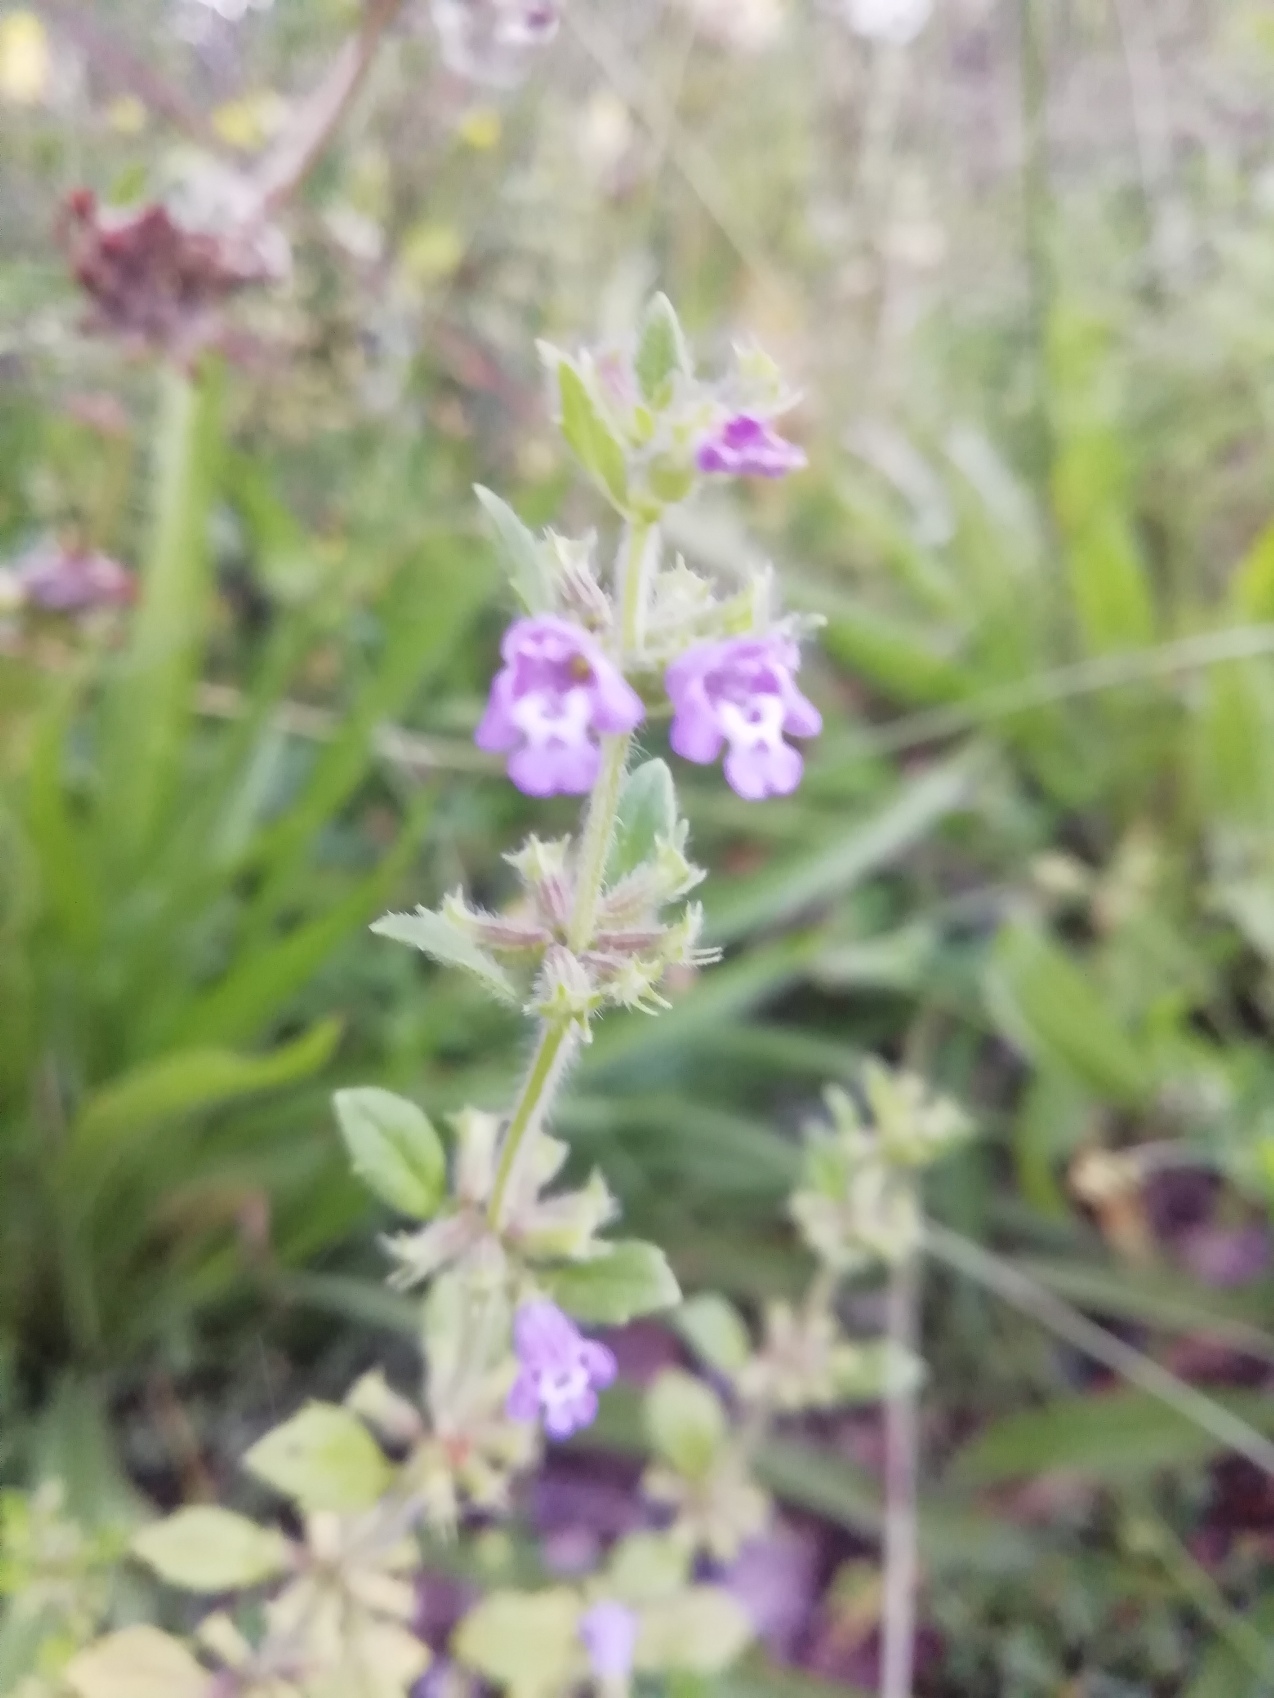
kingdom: Plantae
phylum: Tracheophyta
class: Magnoliopsida
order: Lamiales
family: Lamiaceae
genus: Clinopodium
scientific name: Clinopodium acinos
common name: Voldtimian
